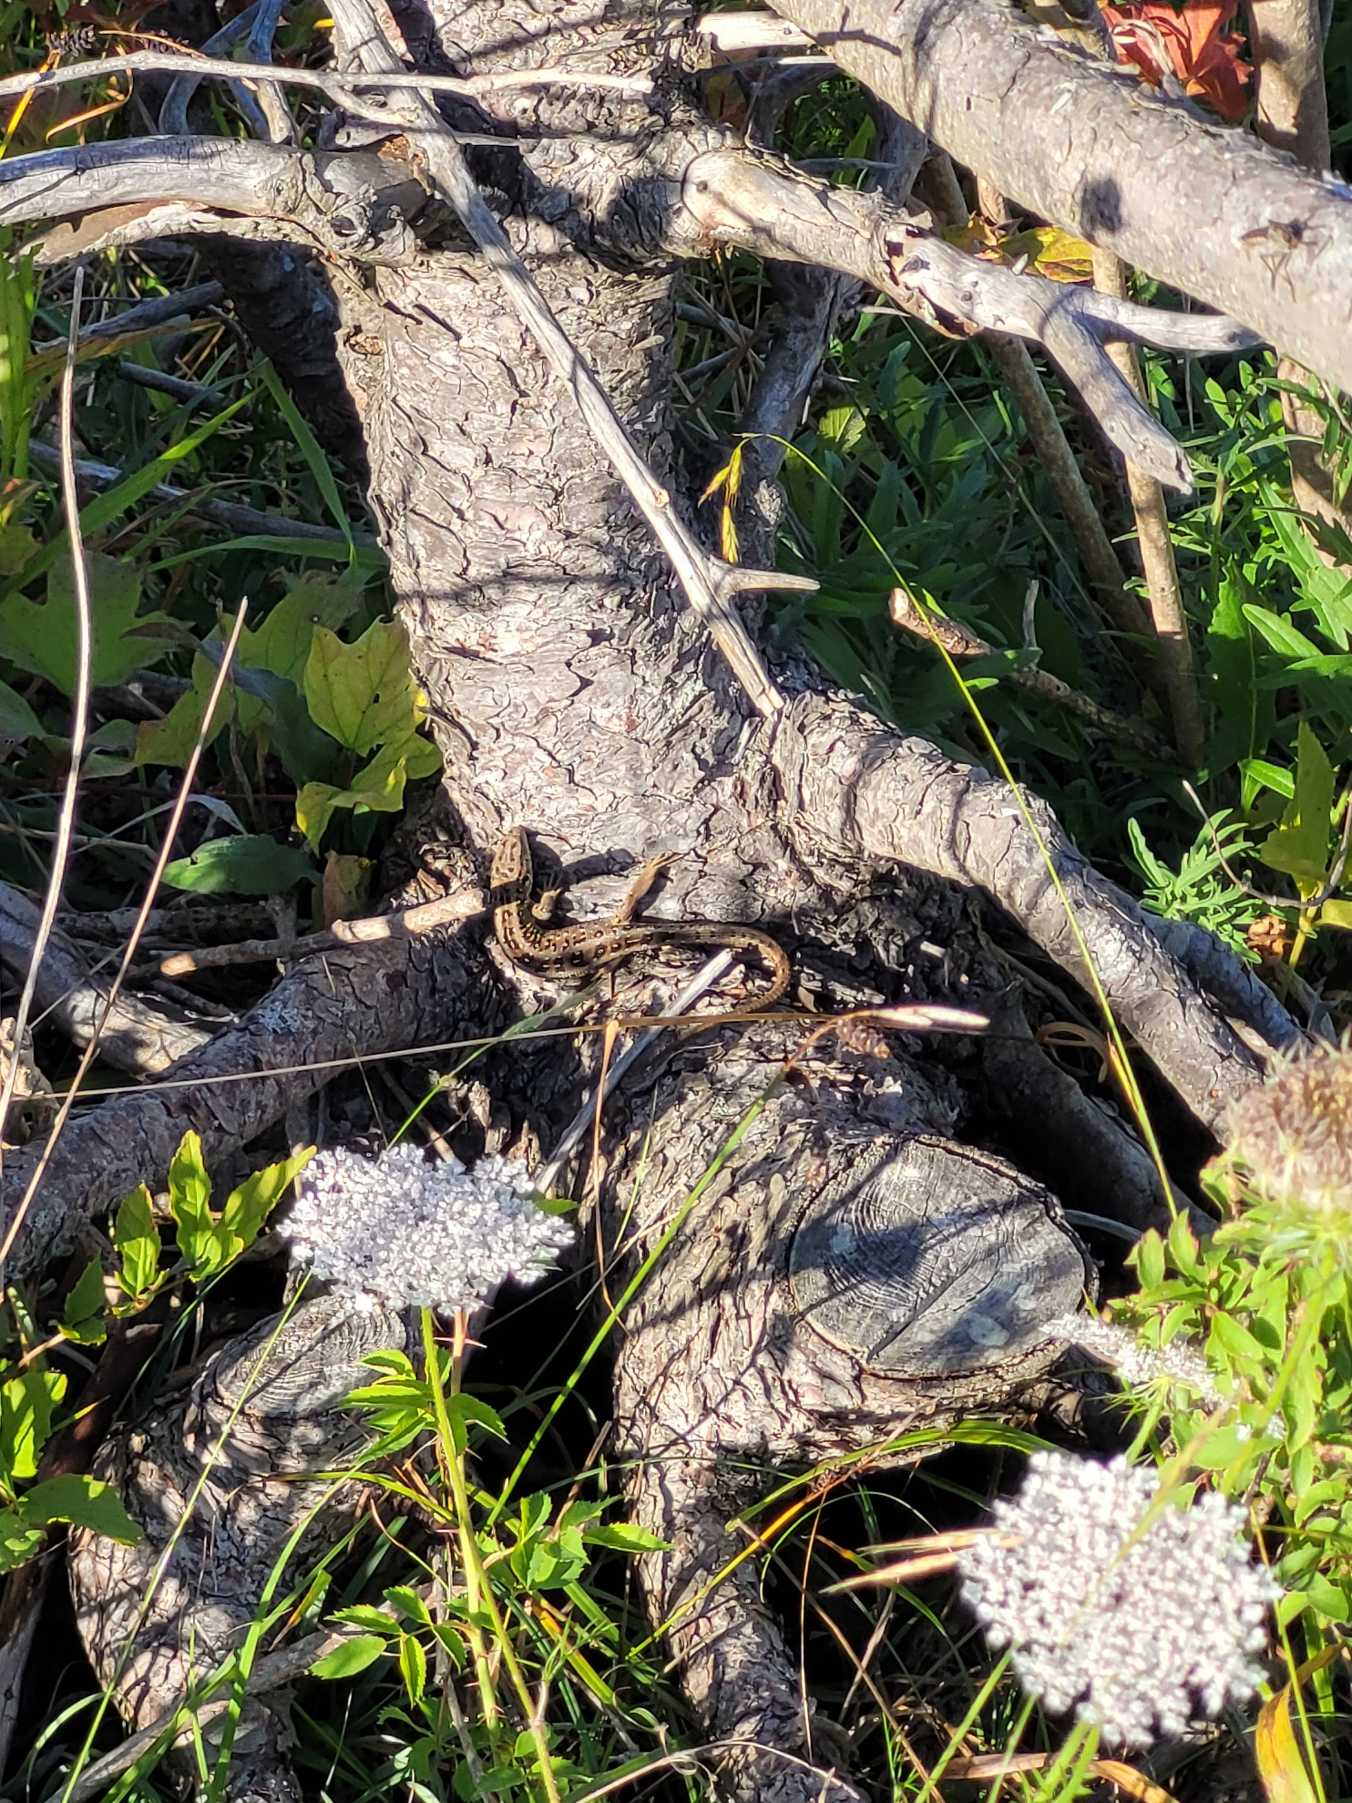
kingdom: Animalia
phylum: Chordata
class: Squamata
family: Lacertidae
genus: Lacerta
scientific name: Lacerta agilis
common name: Markfirben
